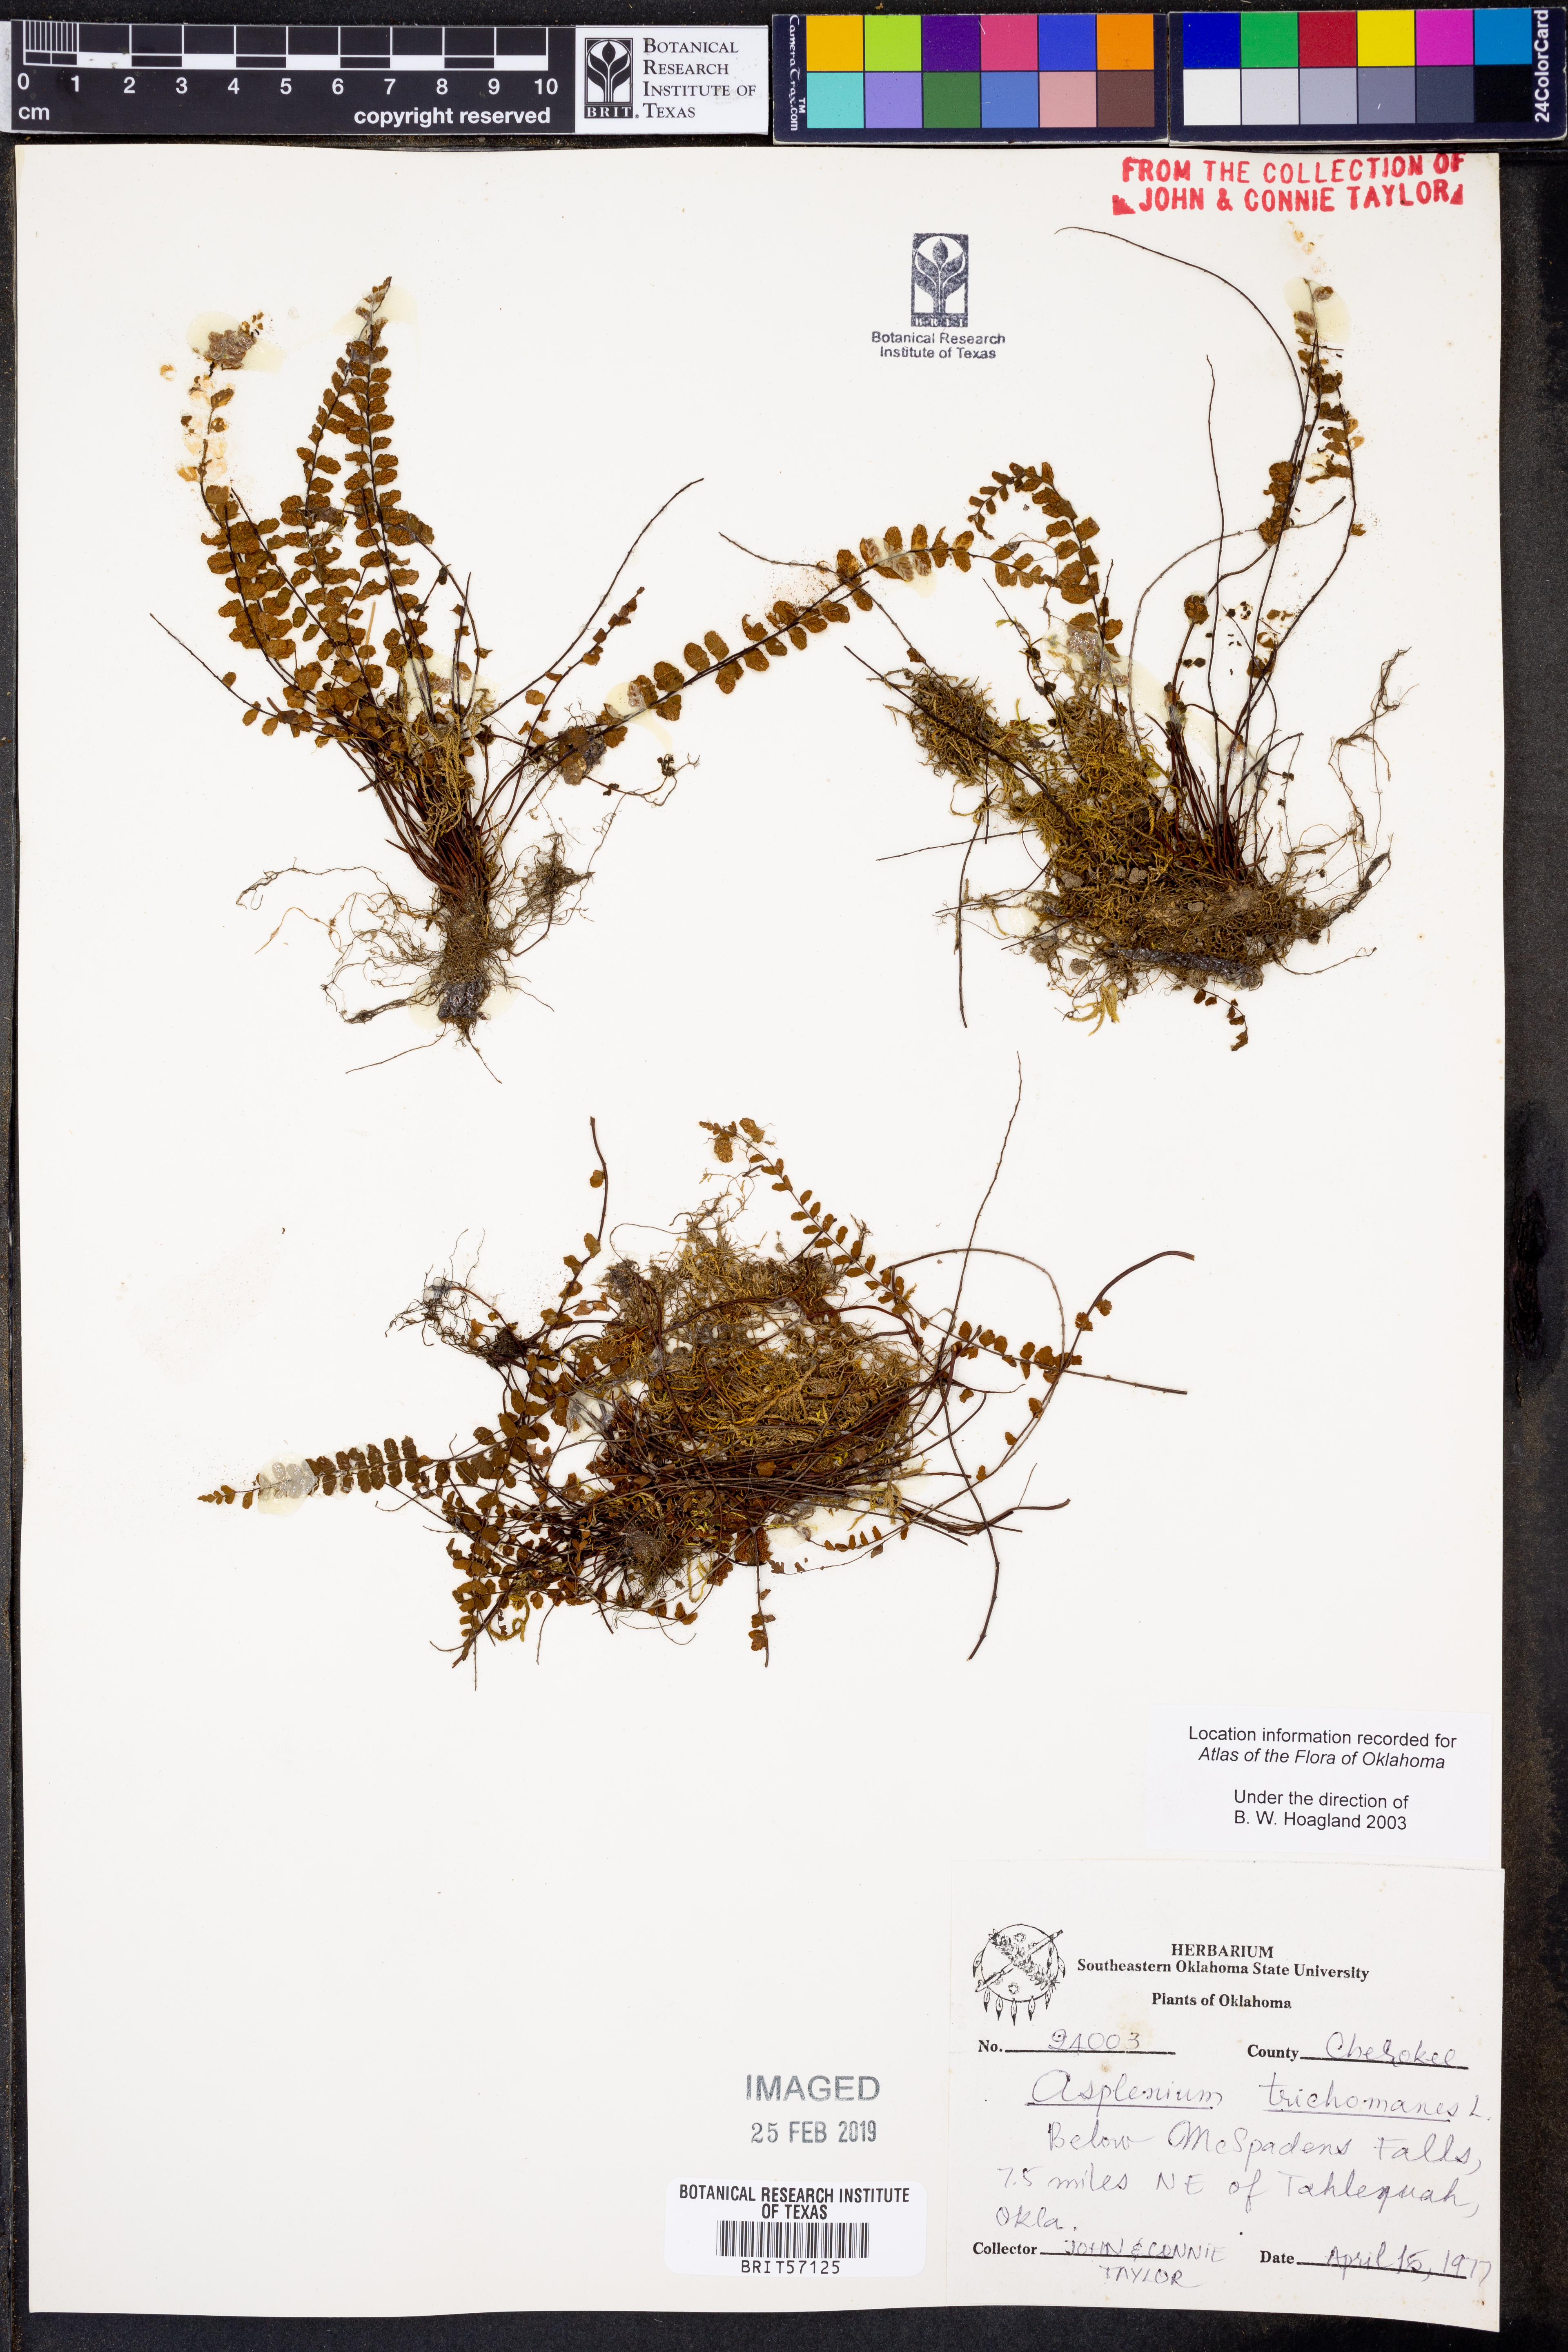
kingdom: Plantae
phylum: Tracheophyta
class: Polypodiopsida
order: Polypodiales
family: Aspleniaceae
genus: Asplenium
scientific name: Asplenium trichomanes
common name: Maidenhair spleenwort
